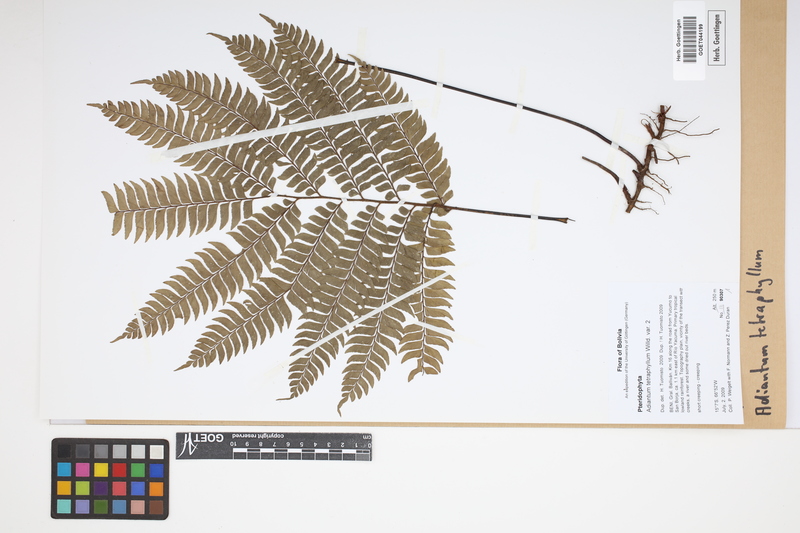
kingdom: Plantae
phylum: Tracheophyta
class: Polypodiopsida
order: Polypodiales
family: Pteridaceae
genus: Adiantum
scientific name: Adiantum tetraphyllum
